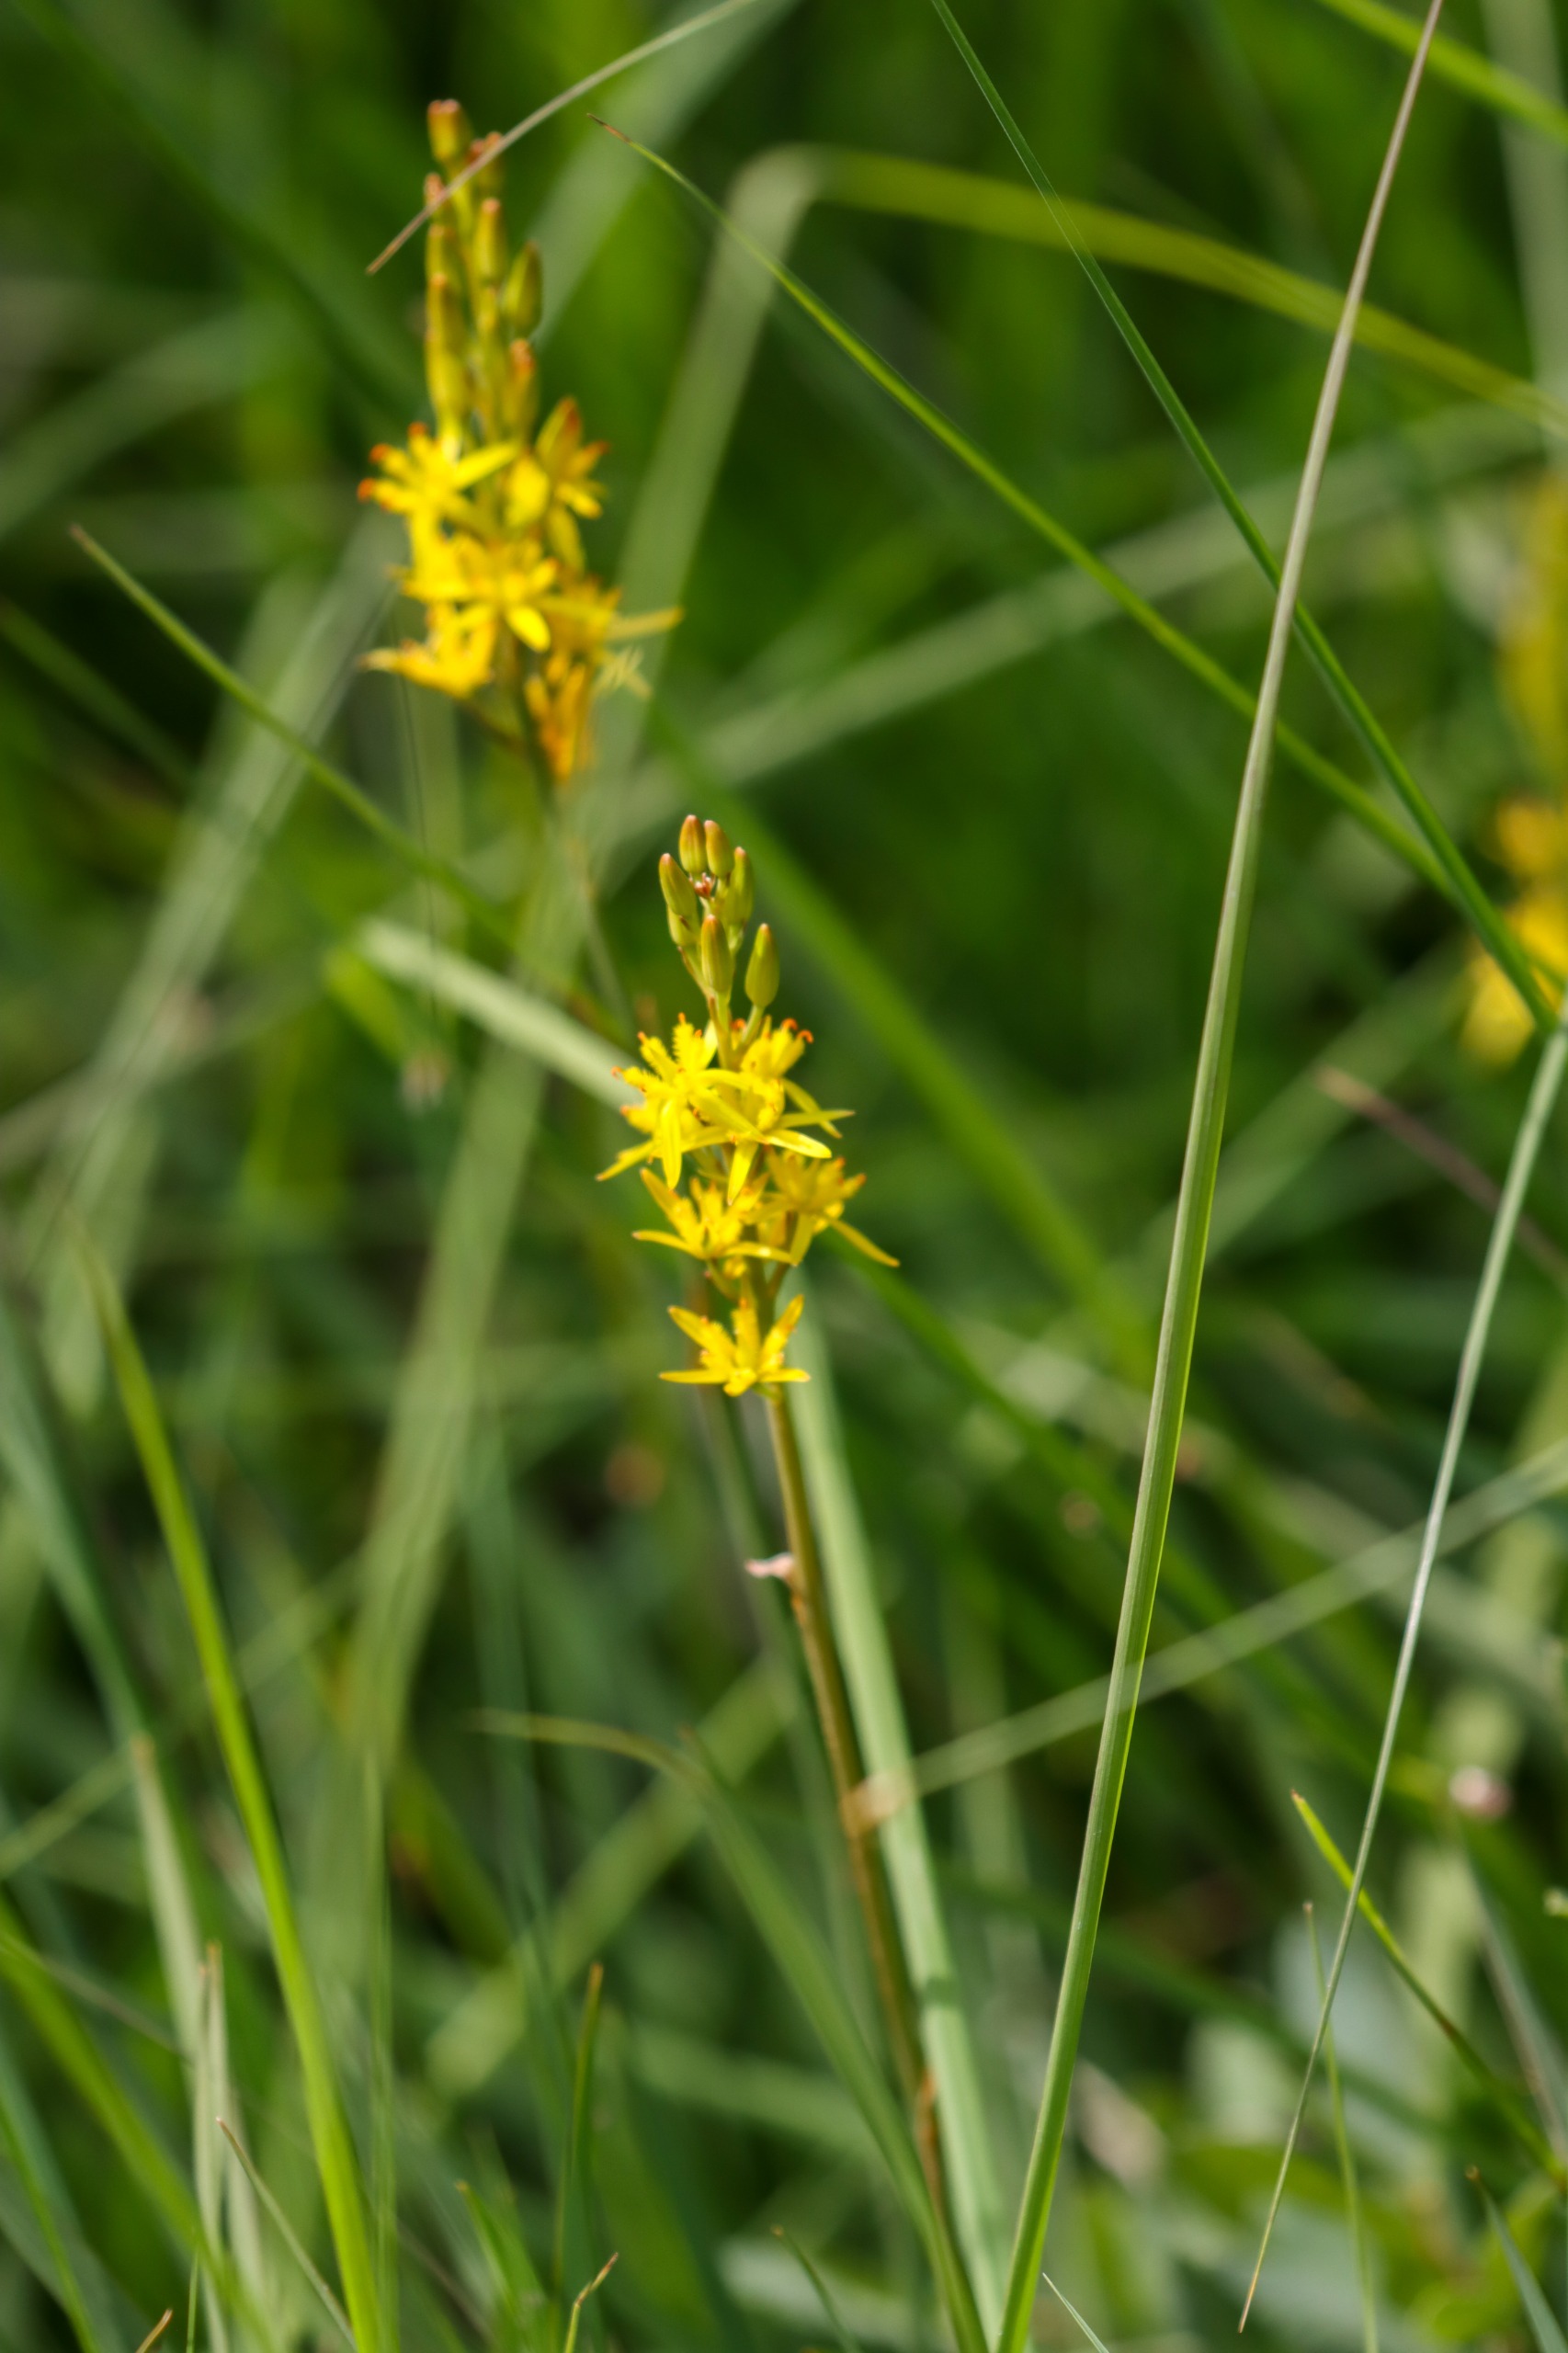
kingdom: Plantae
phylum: Tracheophyta
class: Liliopsida
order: Dioscoreales
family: Nartheciaceae
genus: Narthecium
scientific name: Narthecium ossifragum
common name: Benbræk
